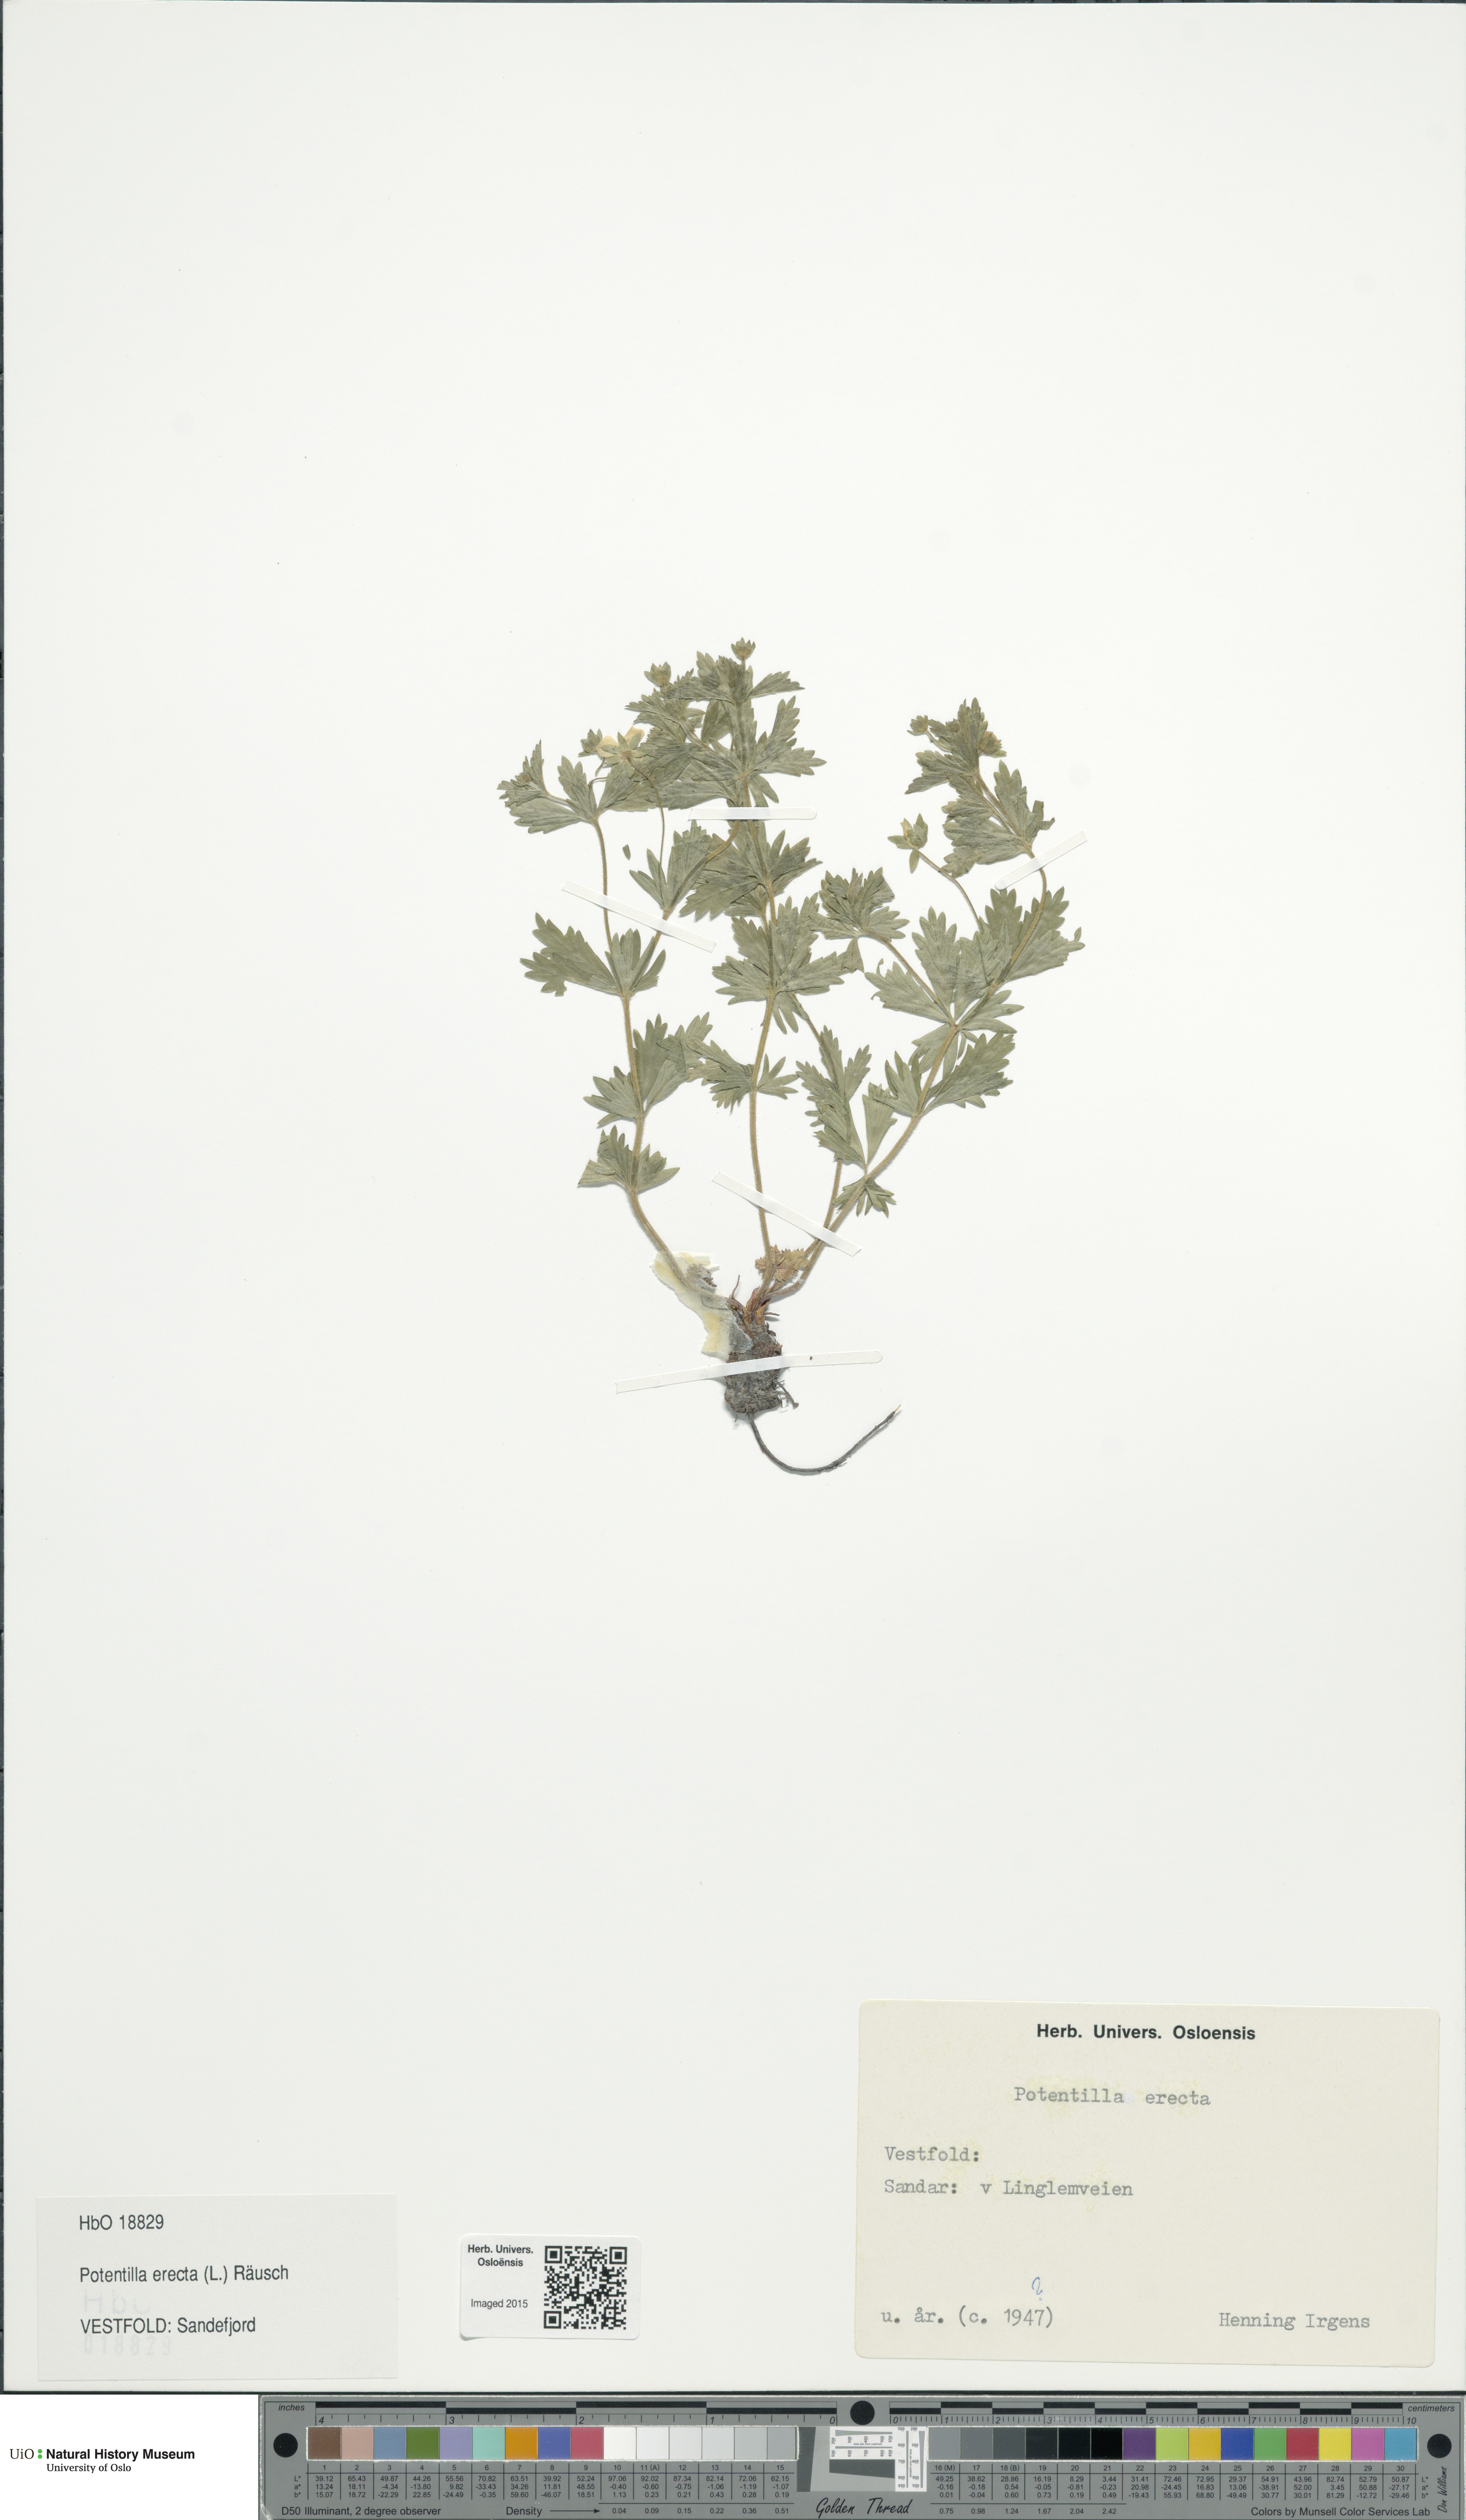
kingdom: Plantae
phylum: Tracheophyta
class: Magnoliopsida
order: Rosales
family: Rosaceae
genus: Potentilla
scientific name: Potentilla erecta
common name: Tormentil
